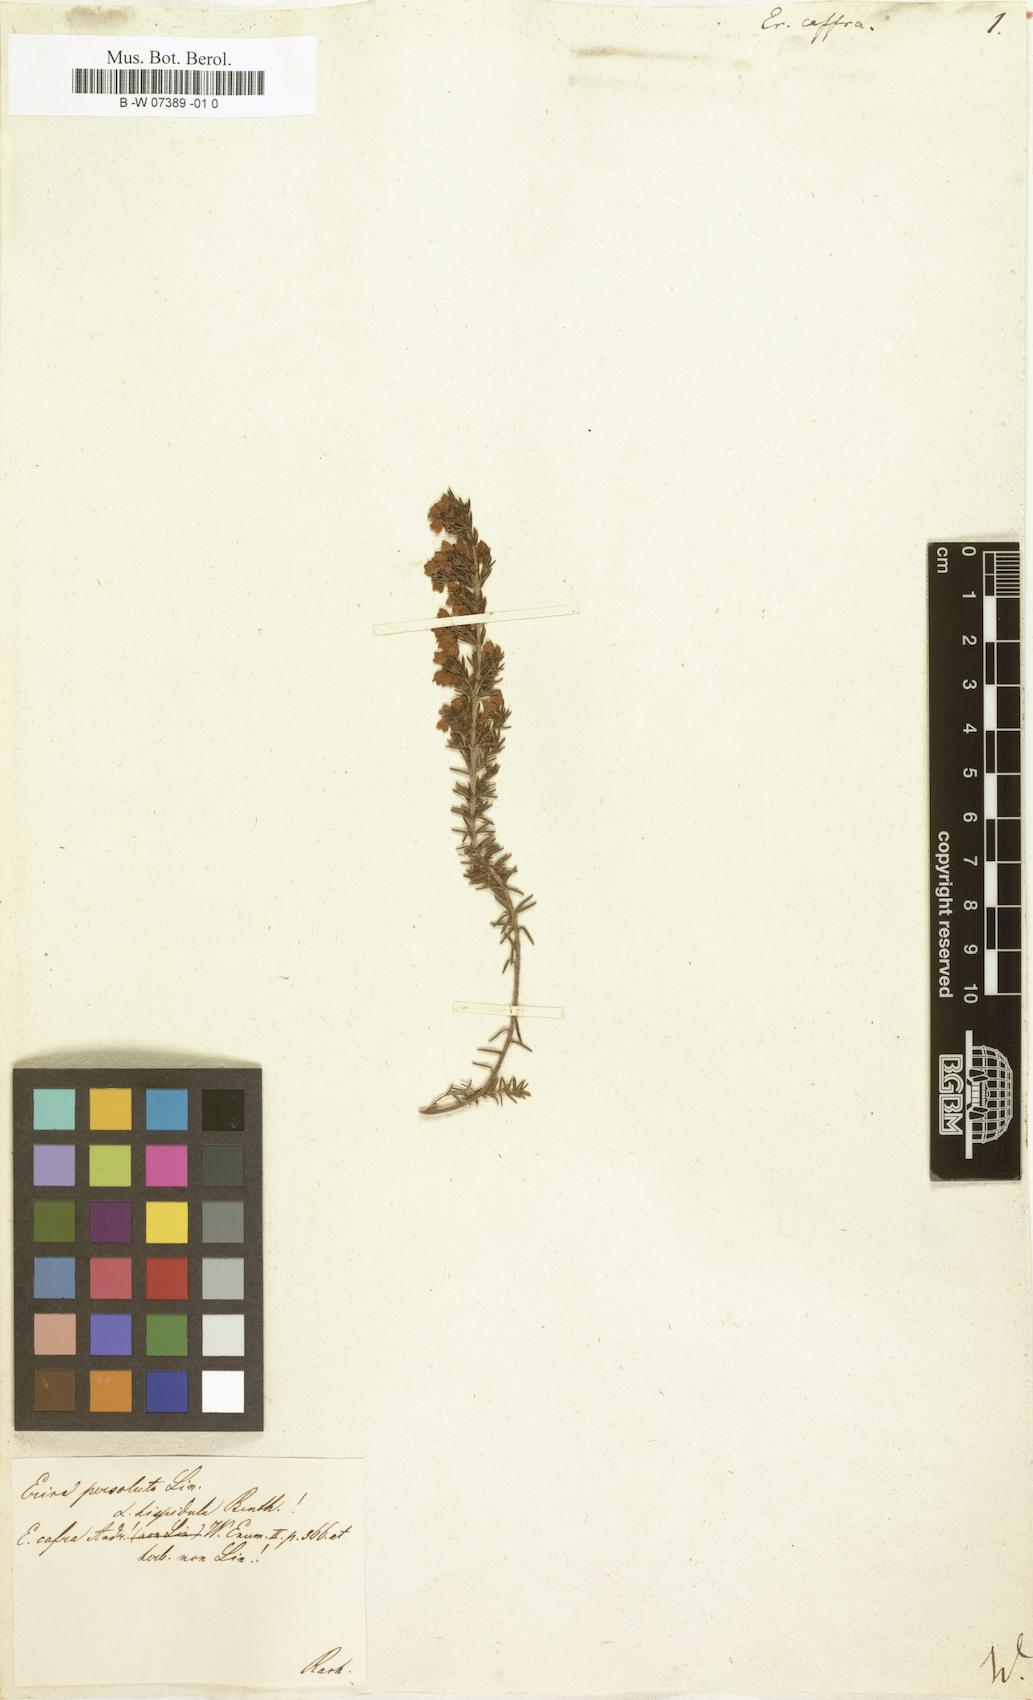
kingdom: Plantae
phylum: Tracheophyta
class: Magnoliopsida
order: Ericales
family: Ericaceae
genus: Erica
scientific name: Erica caffra
